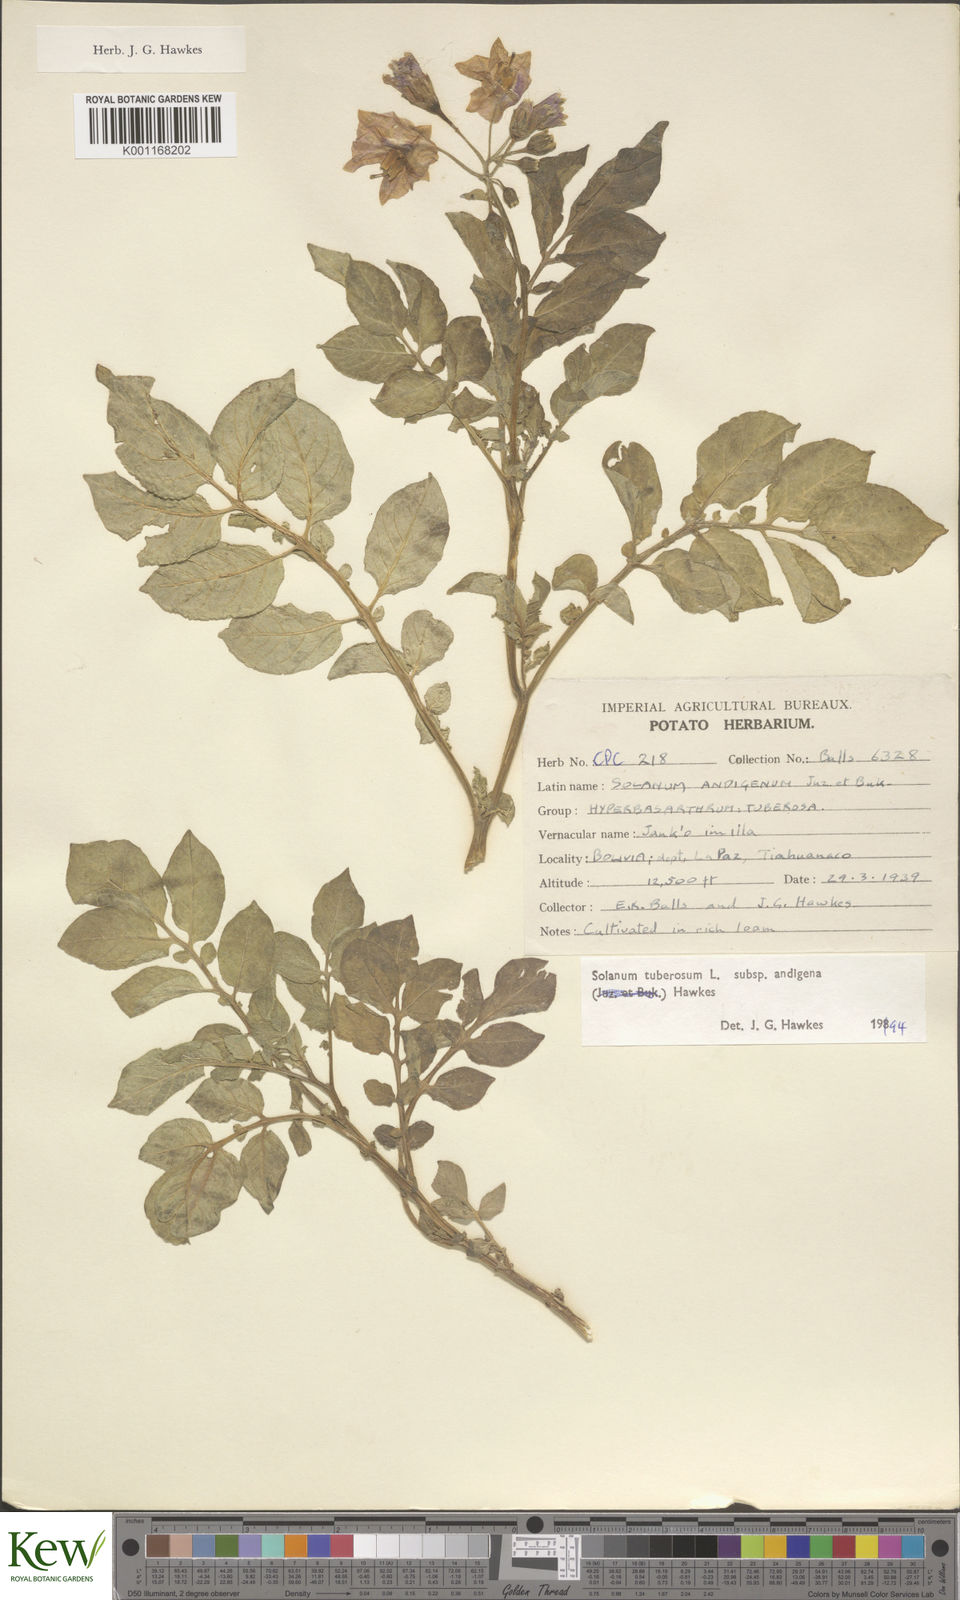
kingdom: Plantae
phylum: Tracheophyta
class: Magnoliopsida
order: Solanales
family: Solanaceae
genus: Solanum
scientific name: Solanum tuberosum
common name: Potato
